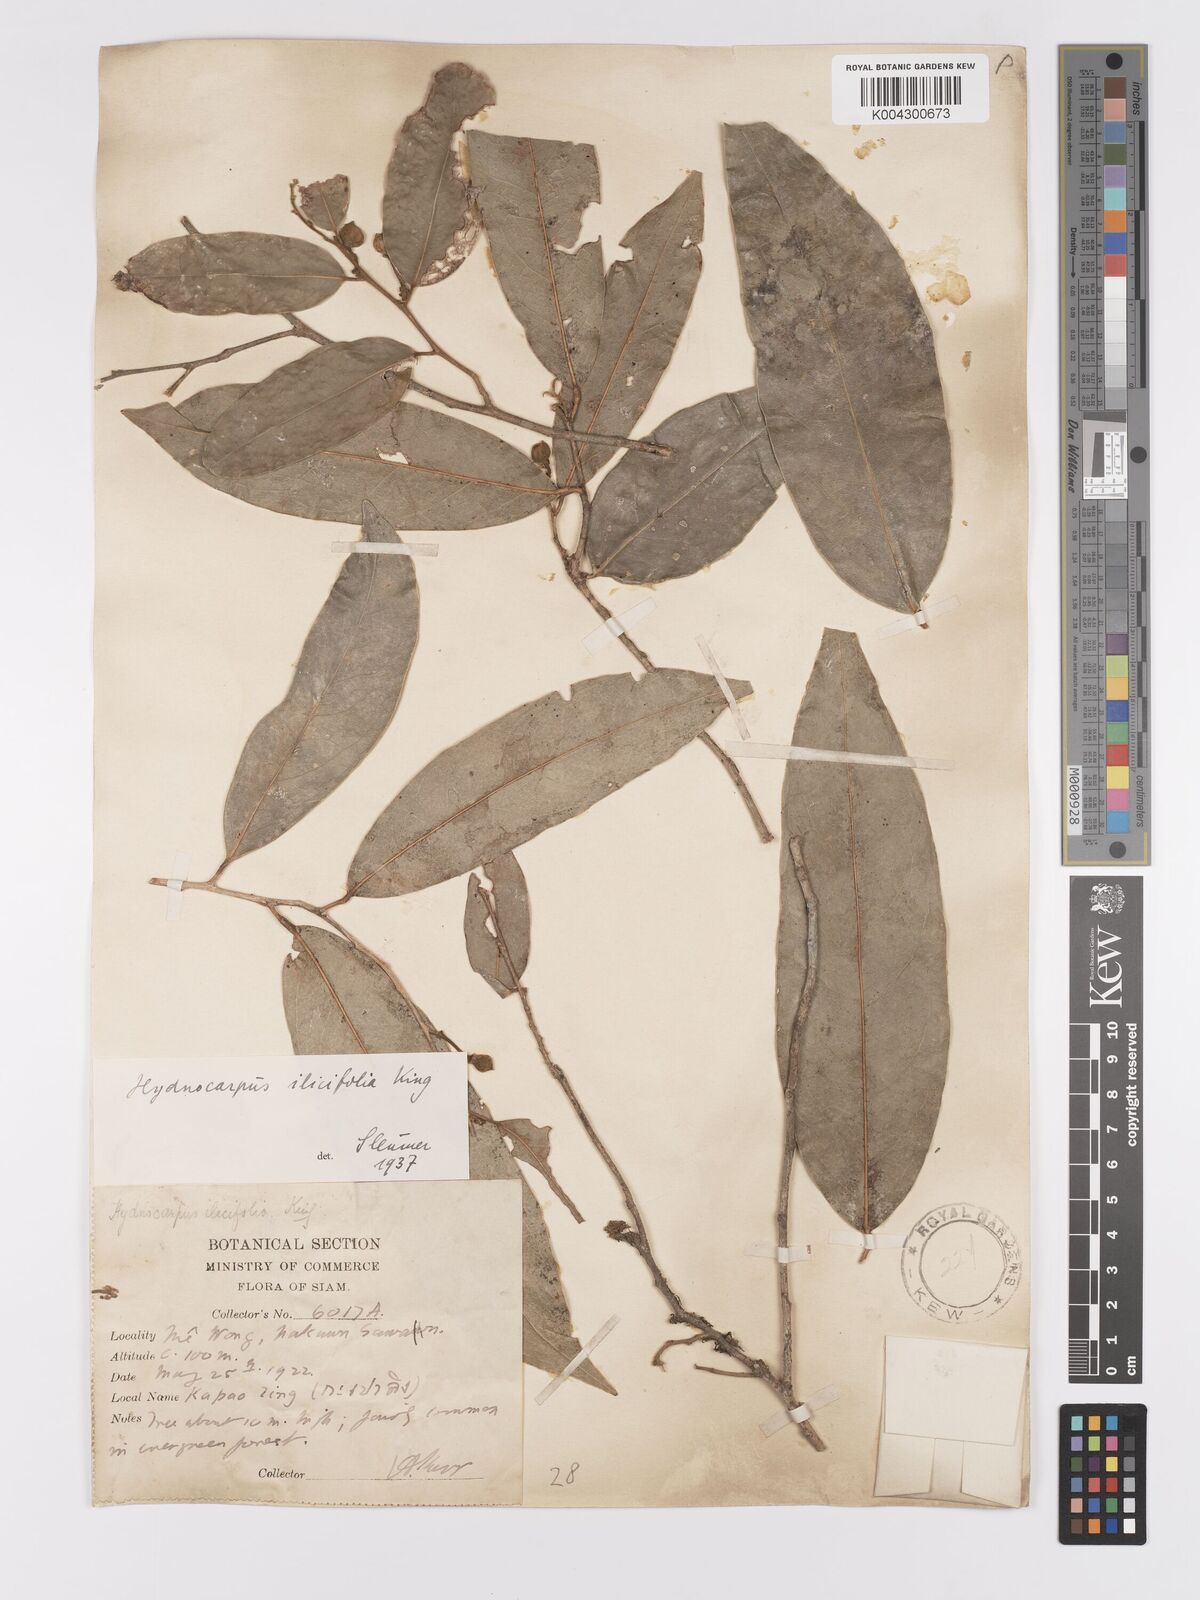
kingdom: Plantae
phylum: Tracheophyta
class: Magnoliopsida
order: Malpighiales
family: Achariaceae
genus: Hydnocarpus
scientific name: Hydnocarpus ilicifolius
